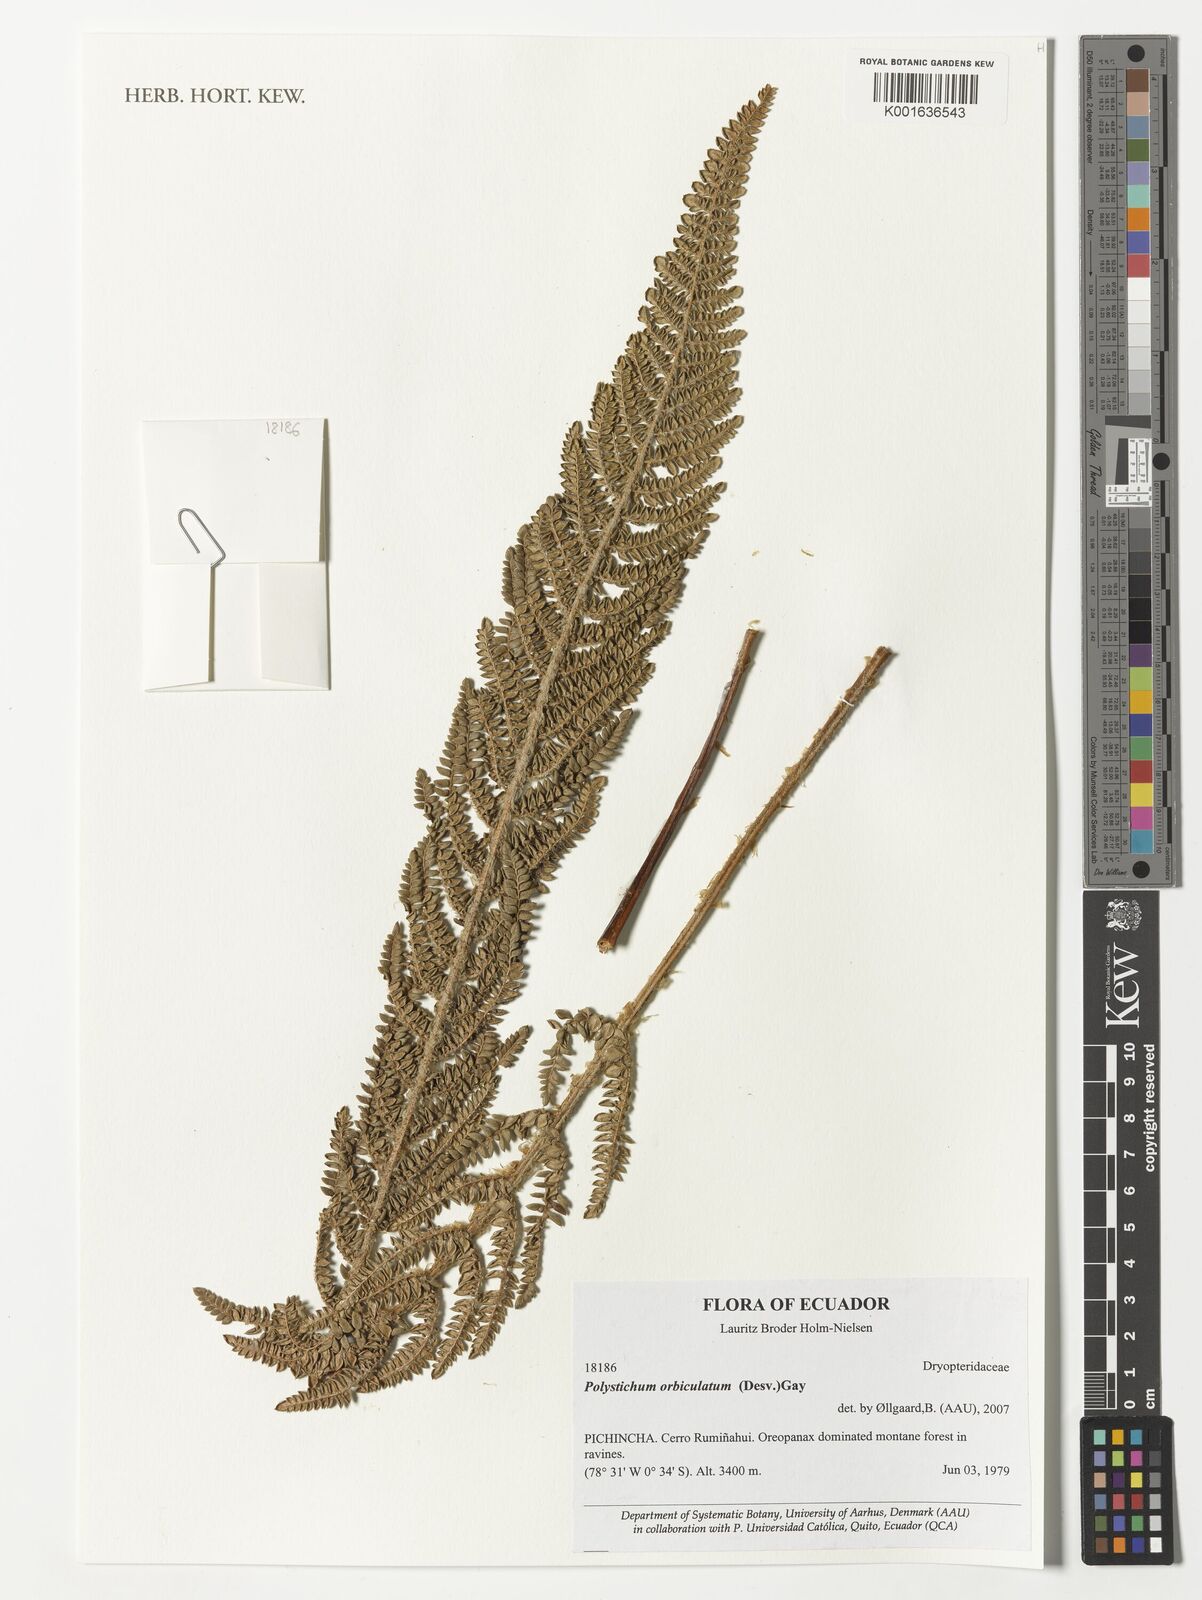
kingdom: Plantae
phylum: Tracheophyta
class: Polypodiopsida
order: Polypodiales
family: Dryopteridaceae
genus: Polystichum
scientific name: Polystichum orbiculatum
